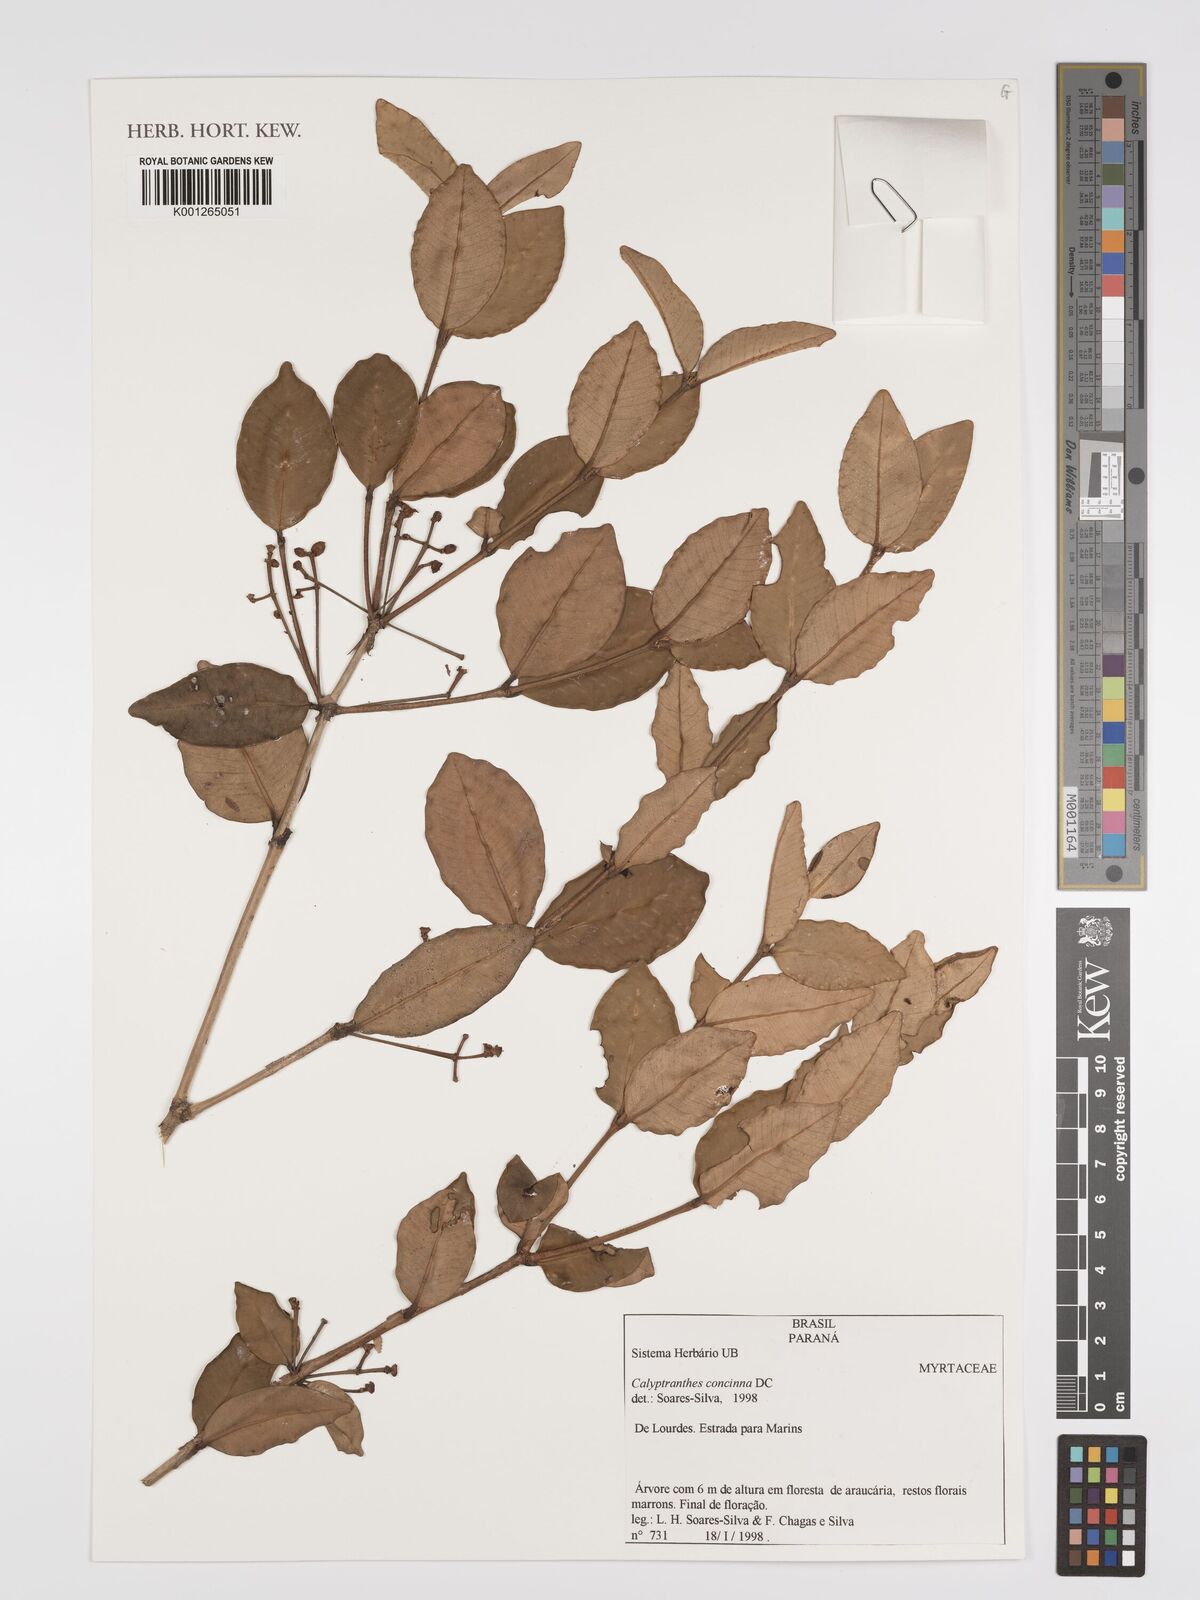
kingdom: Plantae
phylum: Tracheophyta
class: Magnoliopsida
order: Myrtales
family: Myrtaceae
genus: Myrcia
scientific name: Myrcia cruciflora
